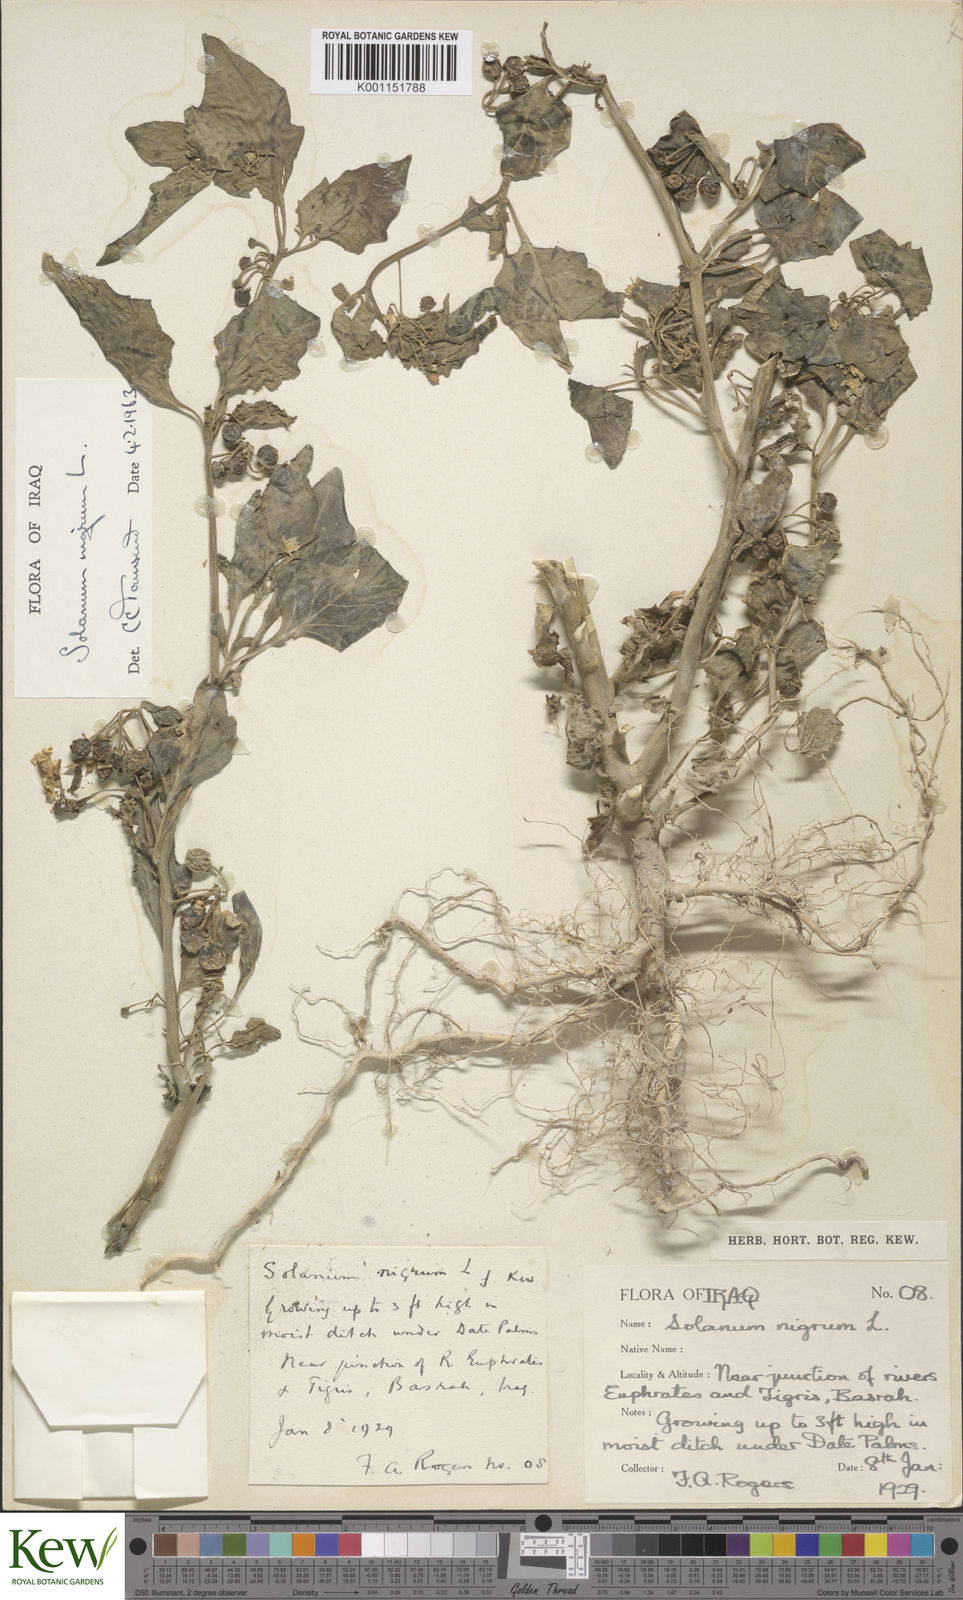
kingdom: Plantae
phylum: Tracheophyta
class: Magnoliopsida
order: Solanales
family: Solanaceae
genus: Solanum
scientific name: Solanum nigrum
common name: Black nightshade
